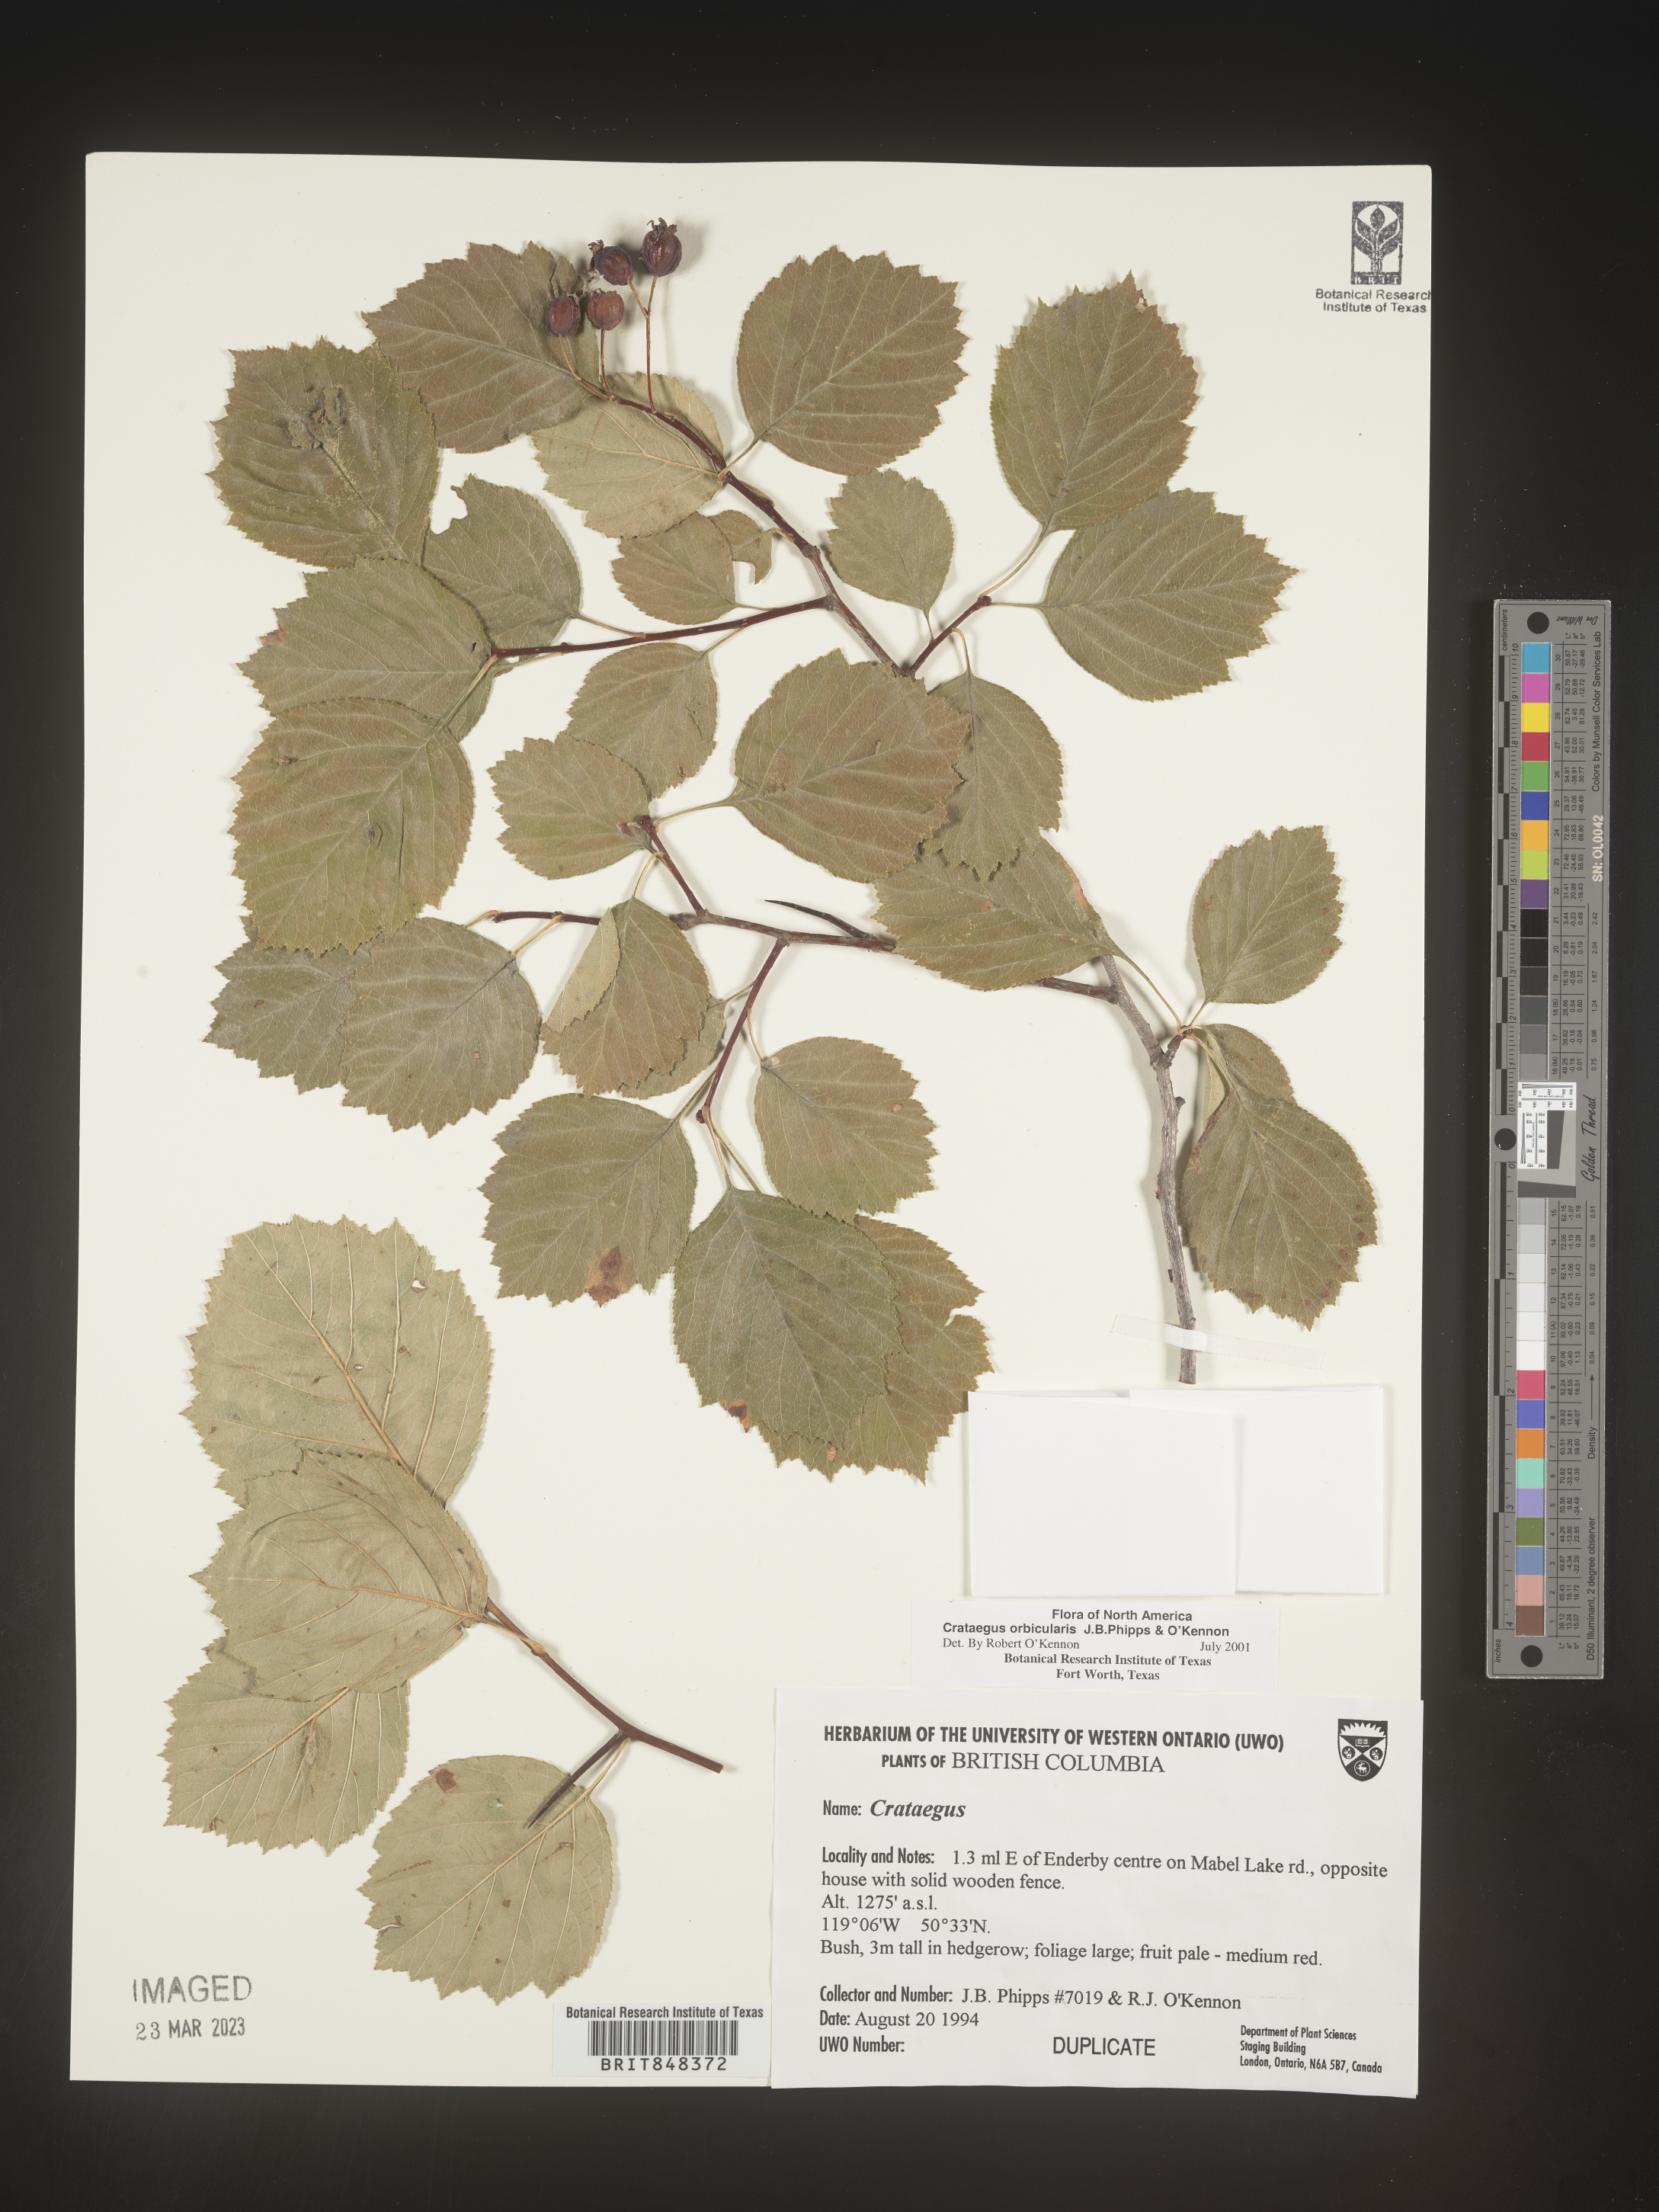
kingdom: Plantae
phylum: Tracheophyta
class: Magnoliopsida
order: Rosales
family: Rosaceae
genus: Crataegus
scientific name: Crataegus orbicularis
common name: Orbicular-leaved hawthorn
